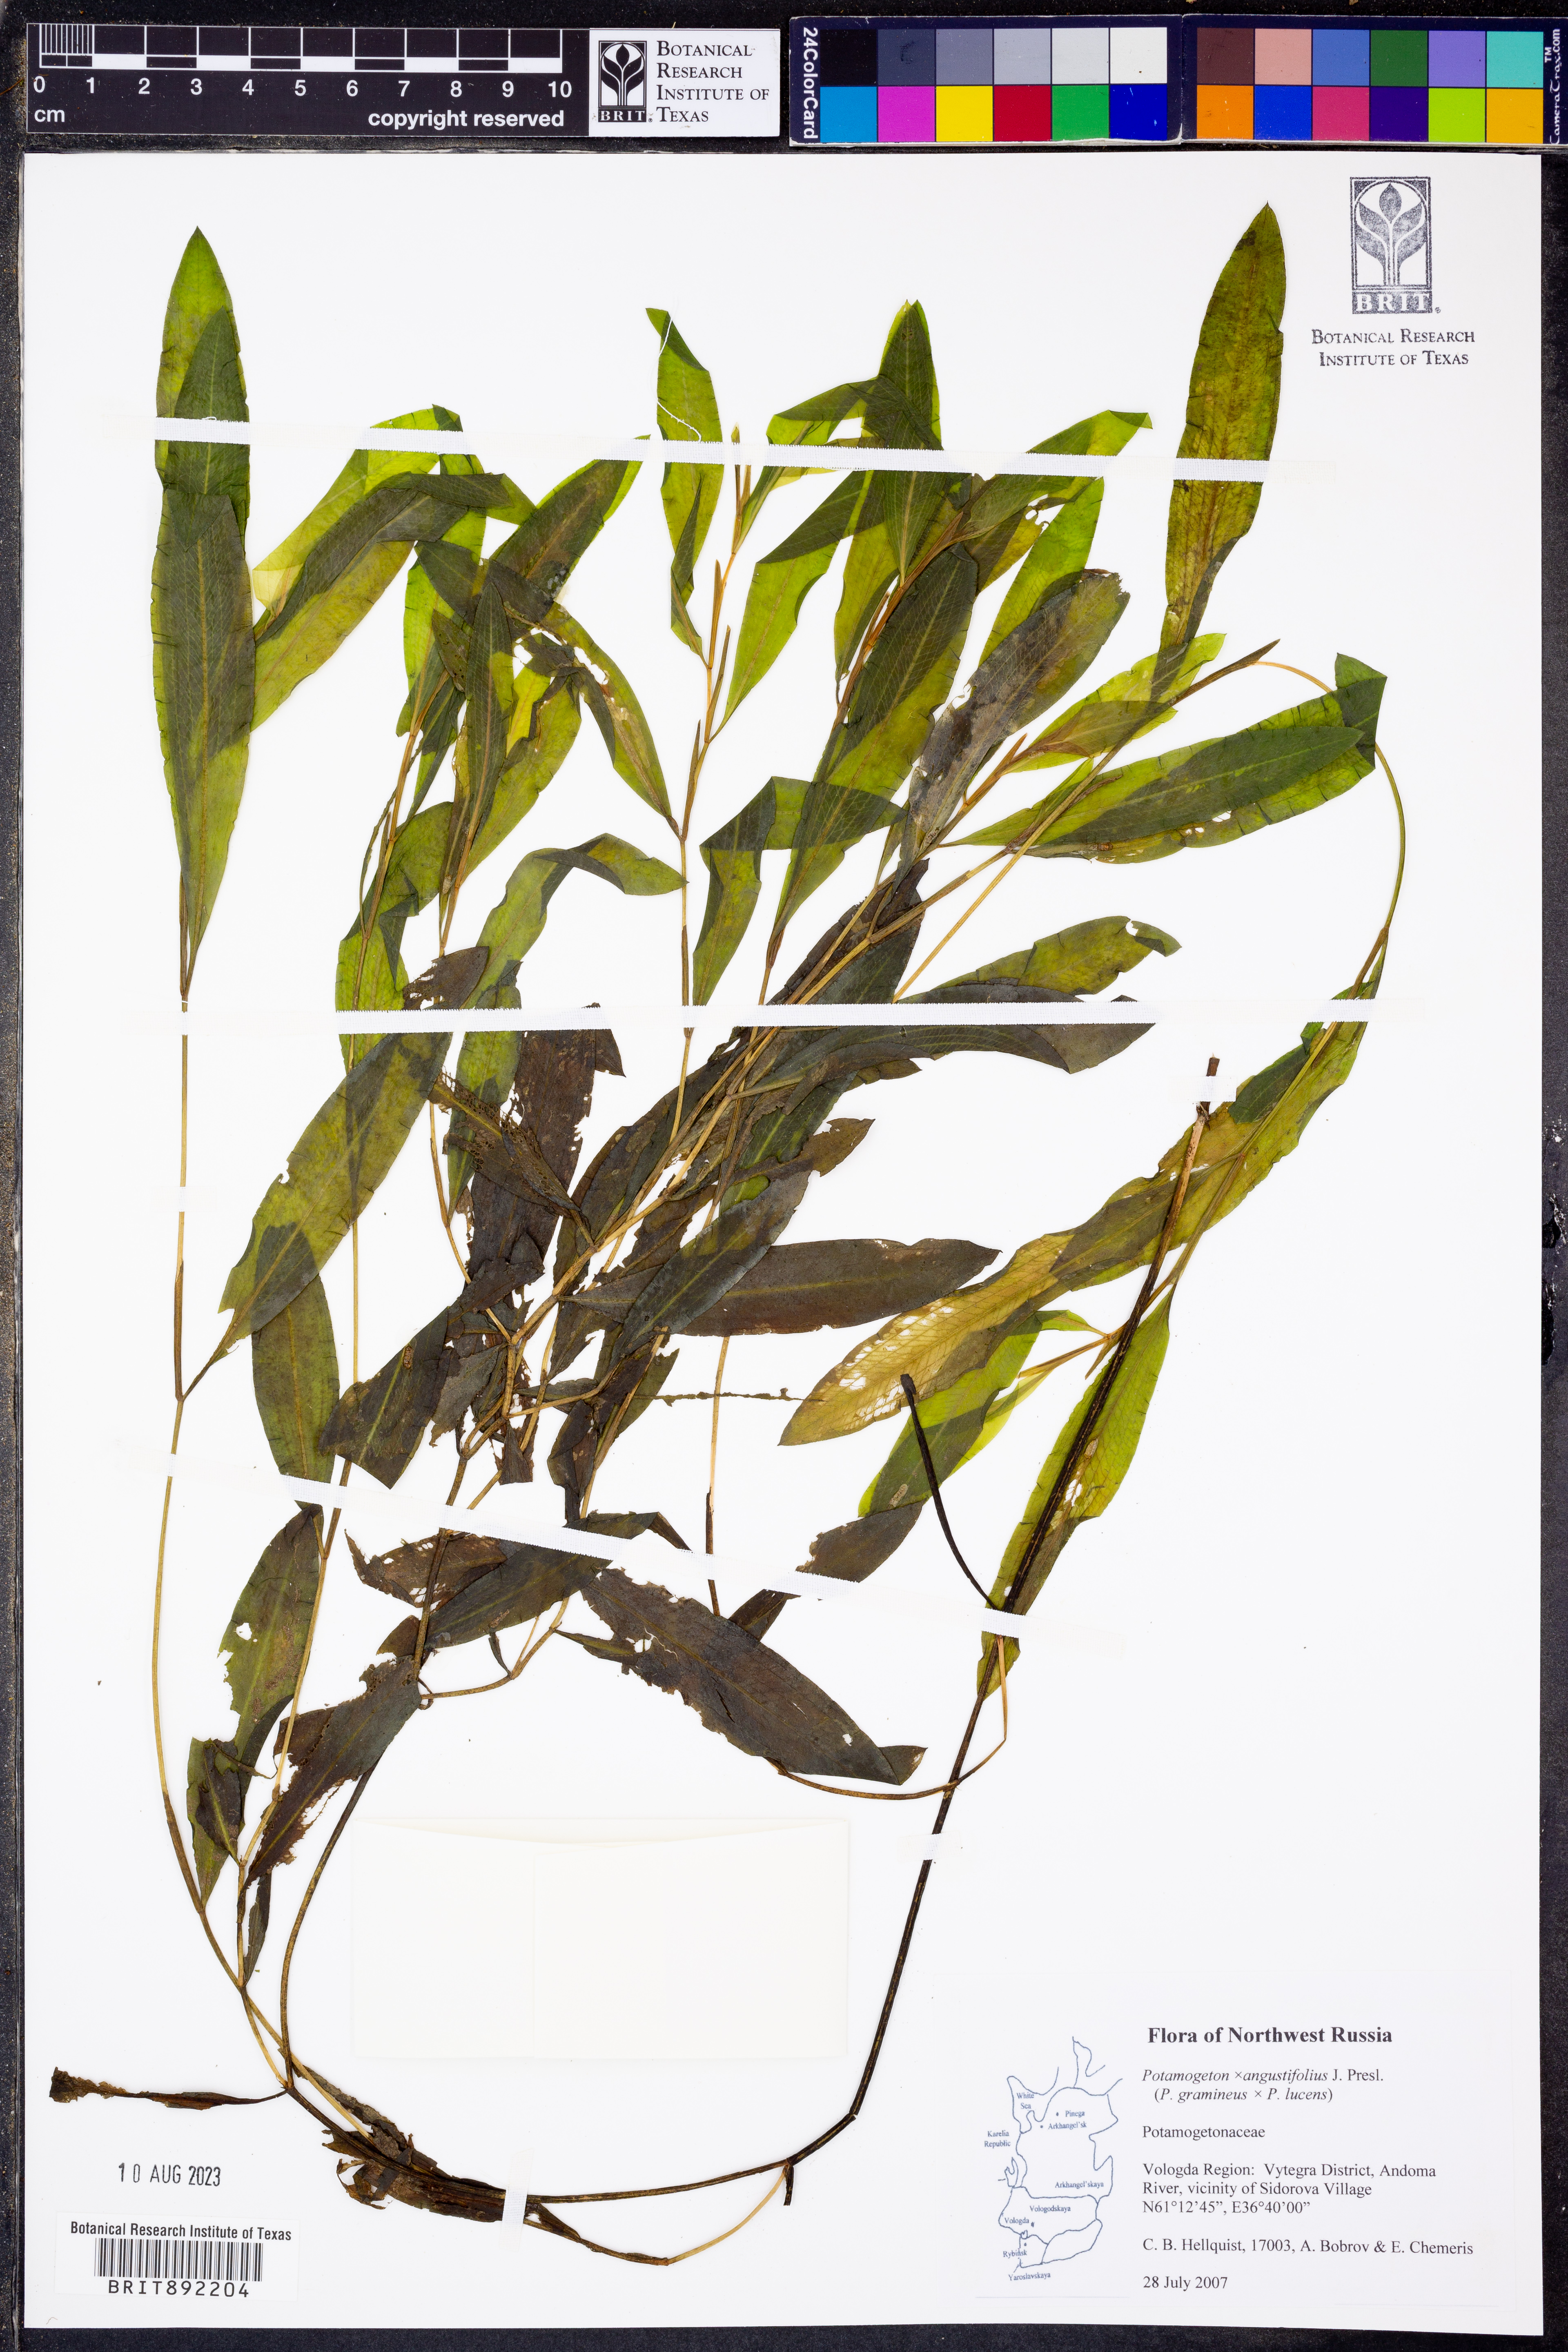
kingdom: Plantae
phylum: Tracheophyta
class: Liliopsida
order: Alismatales
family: Potamogetonaceae
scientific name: Potamogetonaceae
